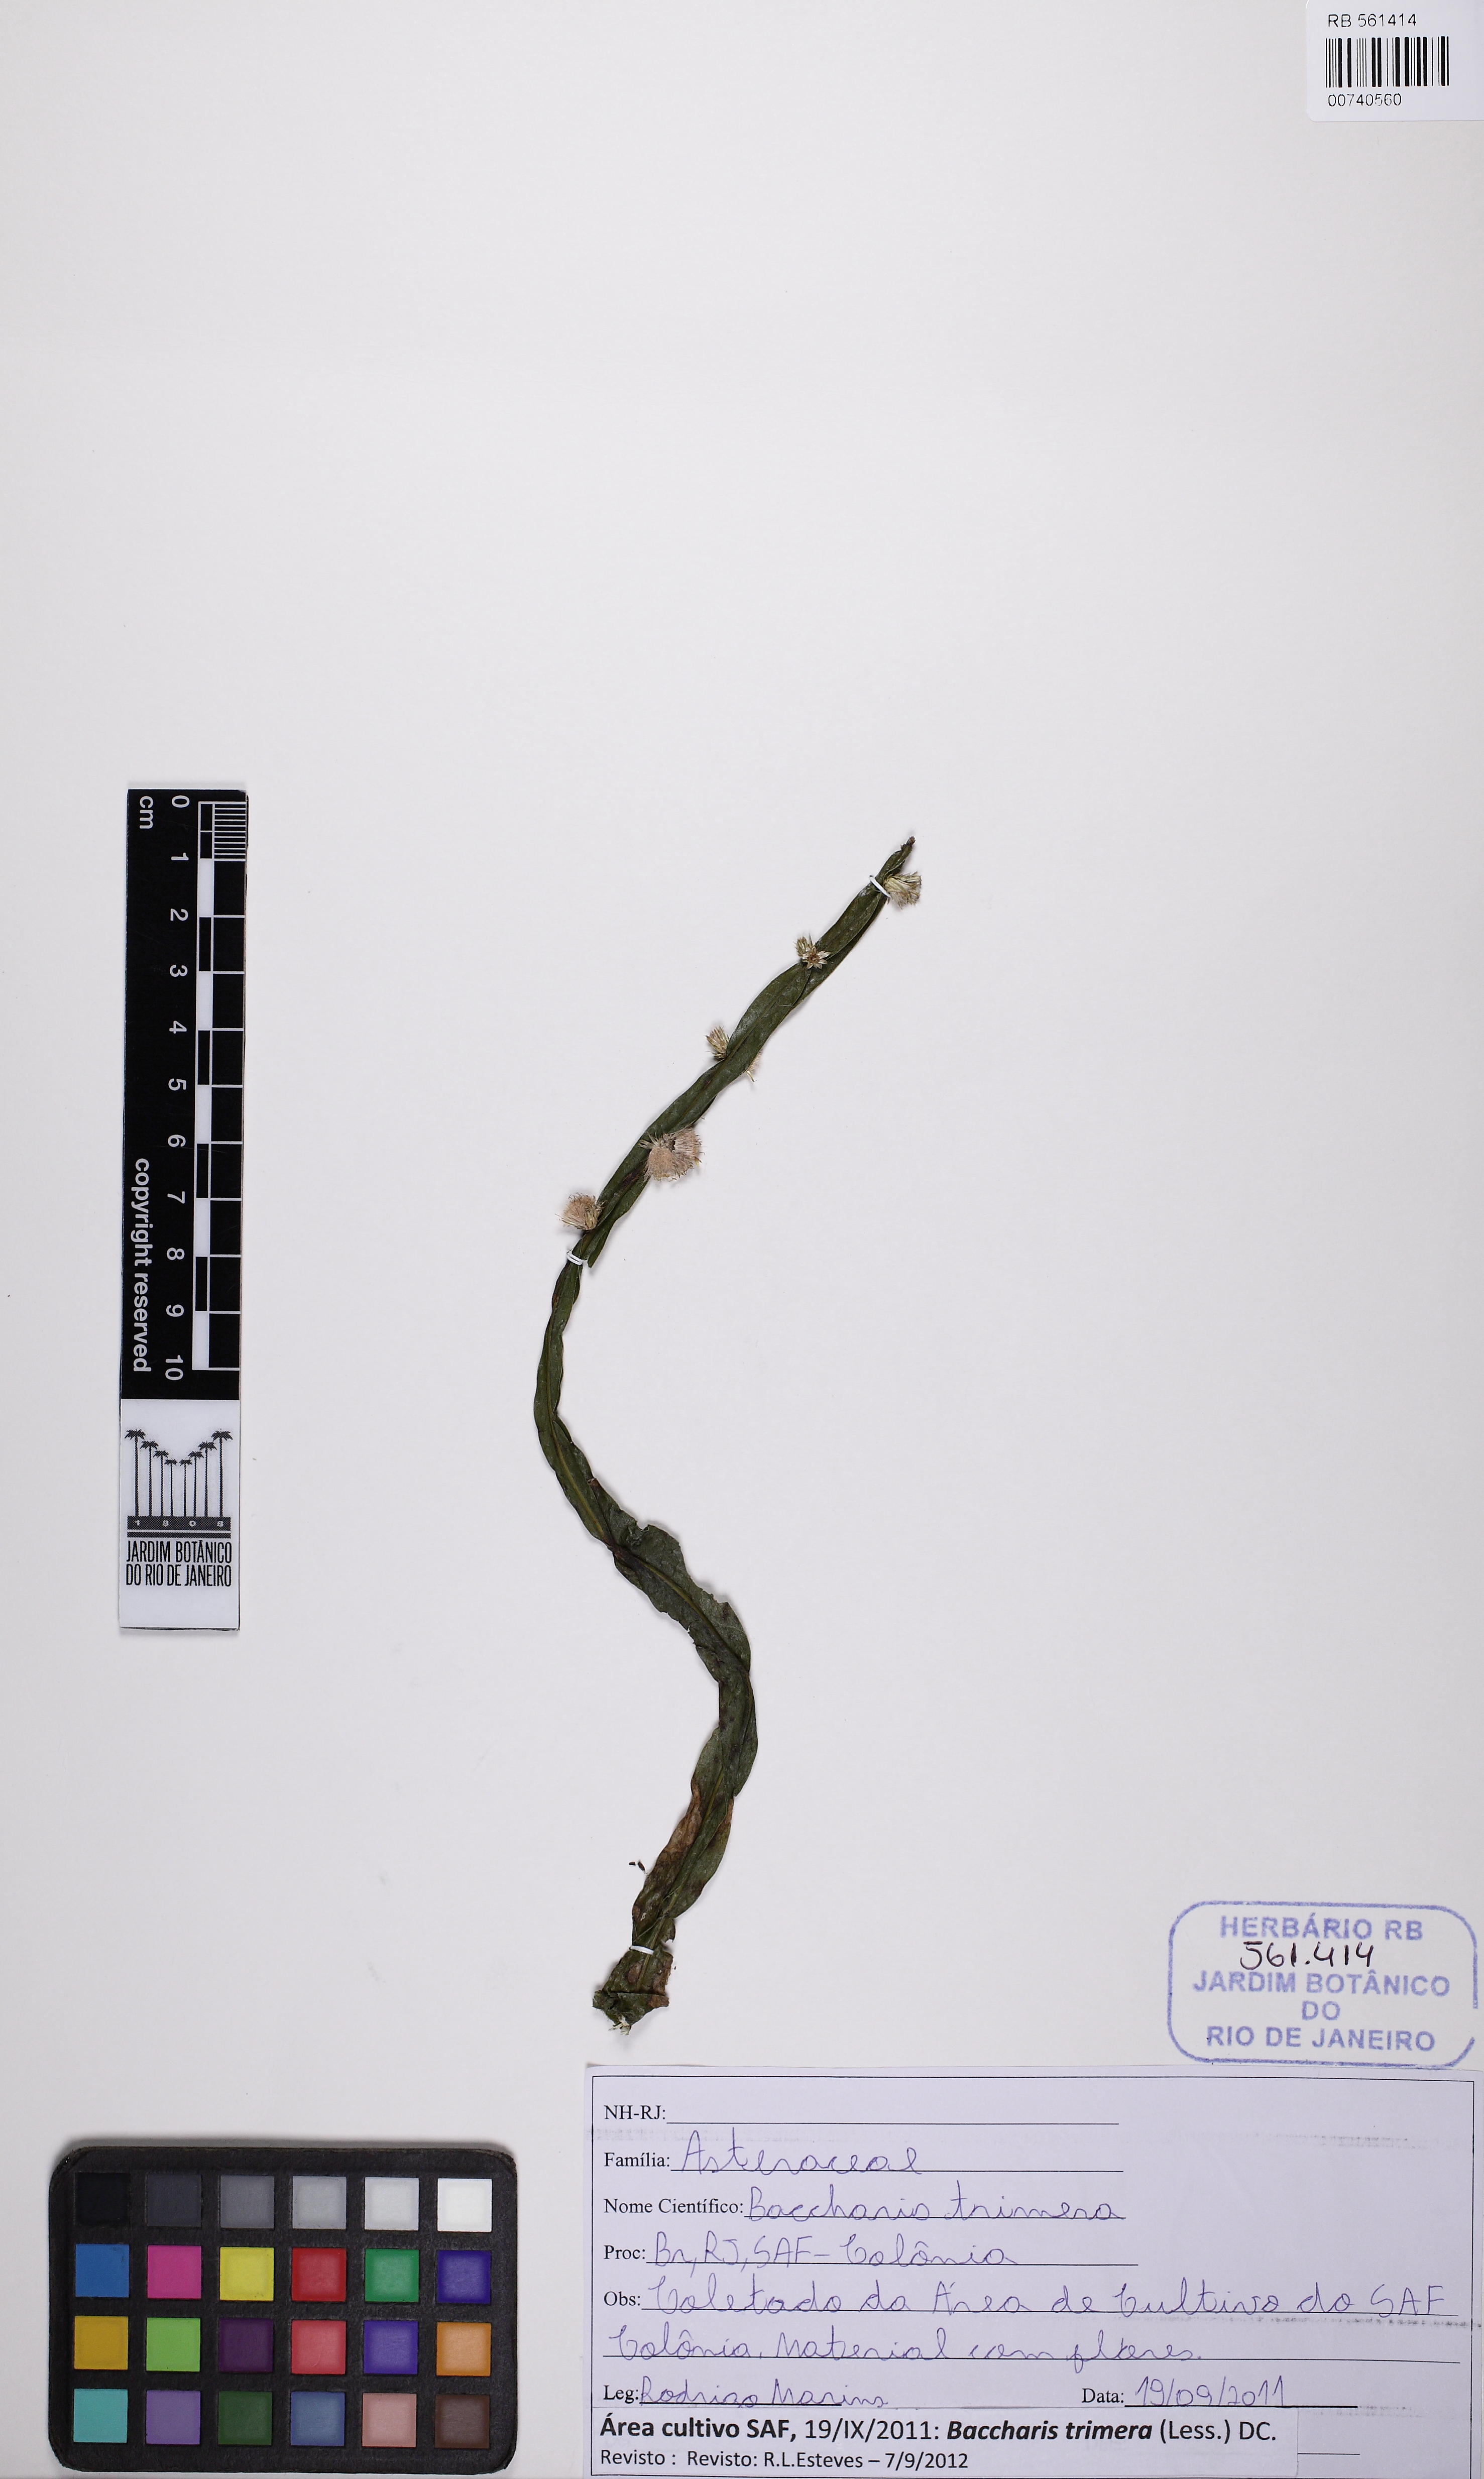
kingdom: Plantae
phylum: Tracheophyta
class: Magnoliopsida
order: Asterales
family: Asteraceae
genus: Baccharis
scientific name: Baccharis trimera
